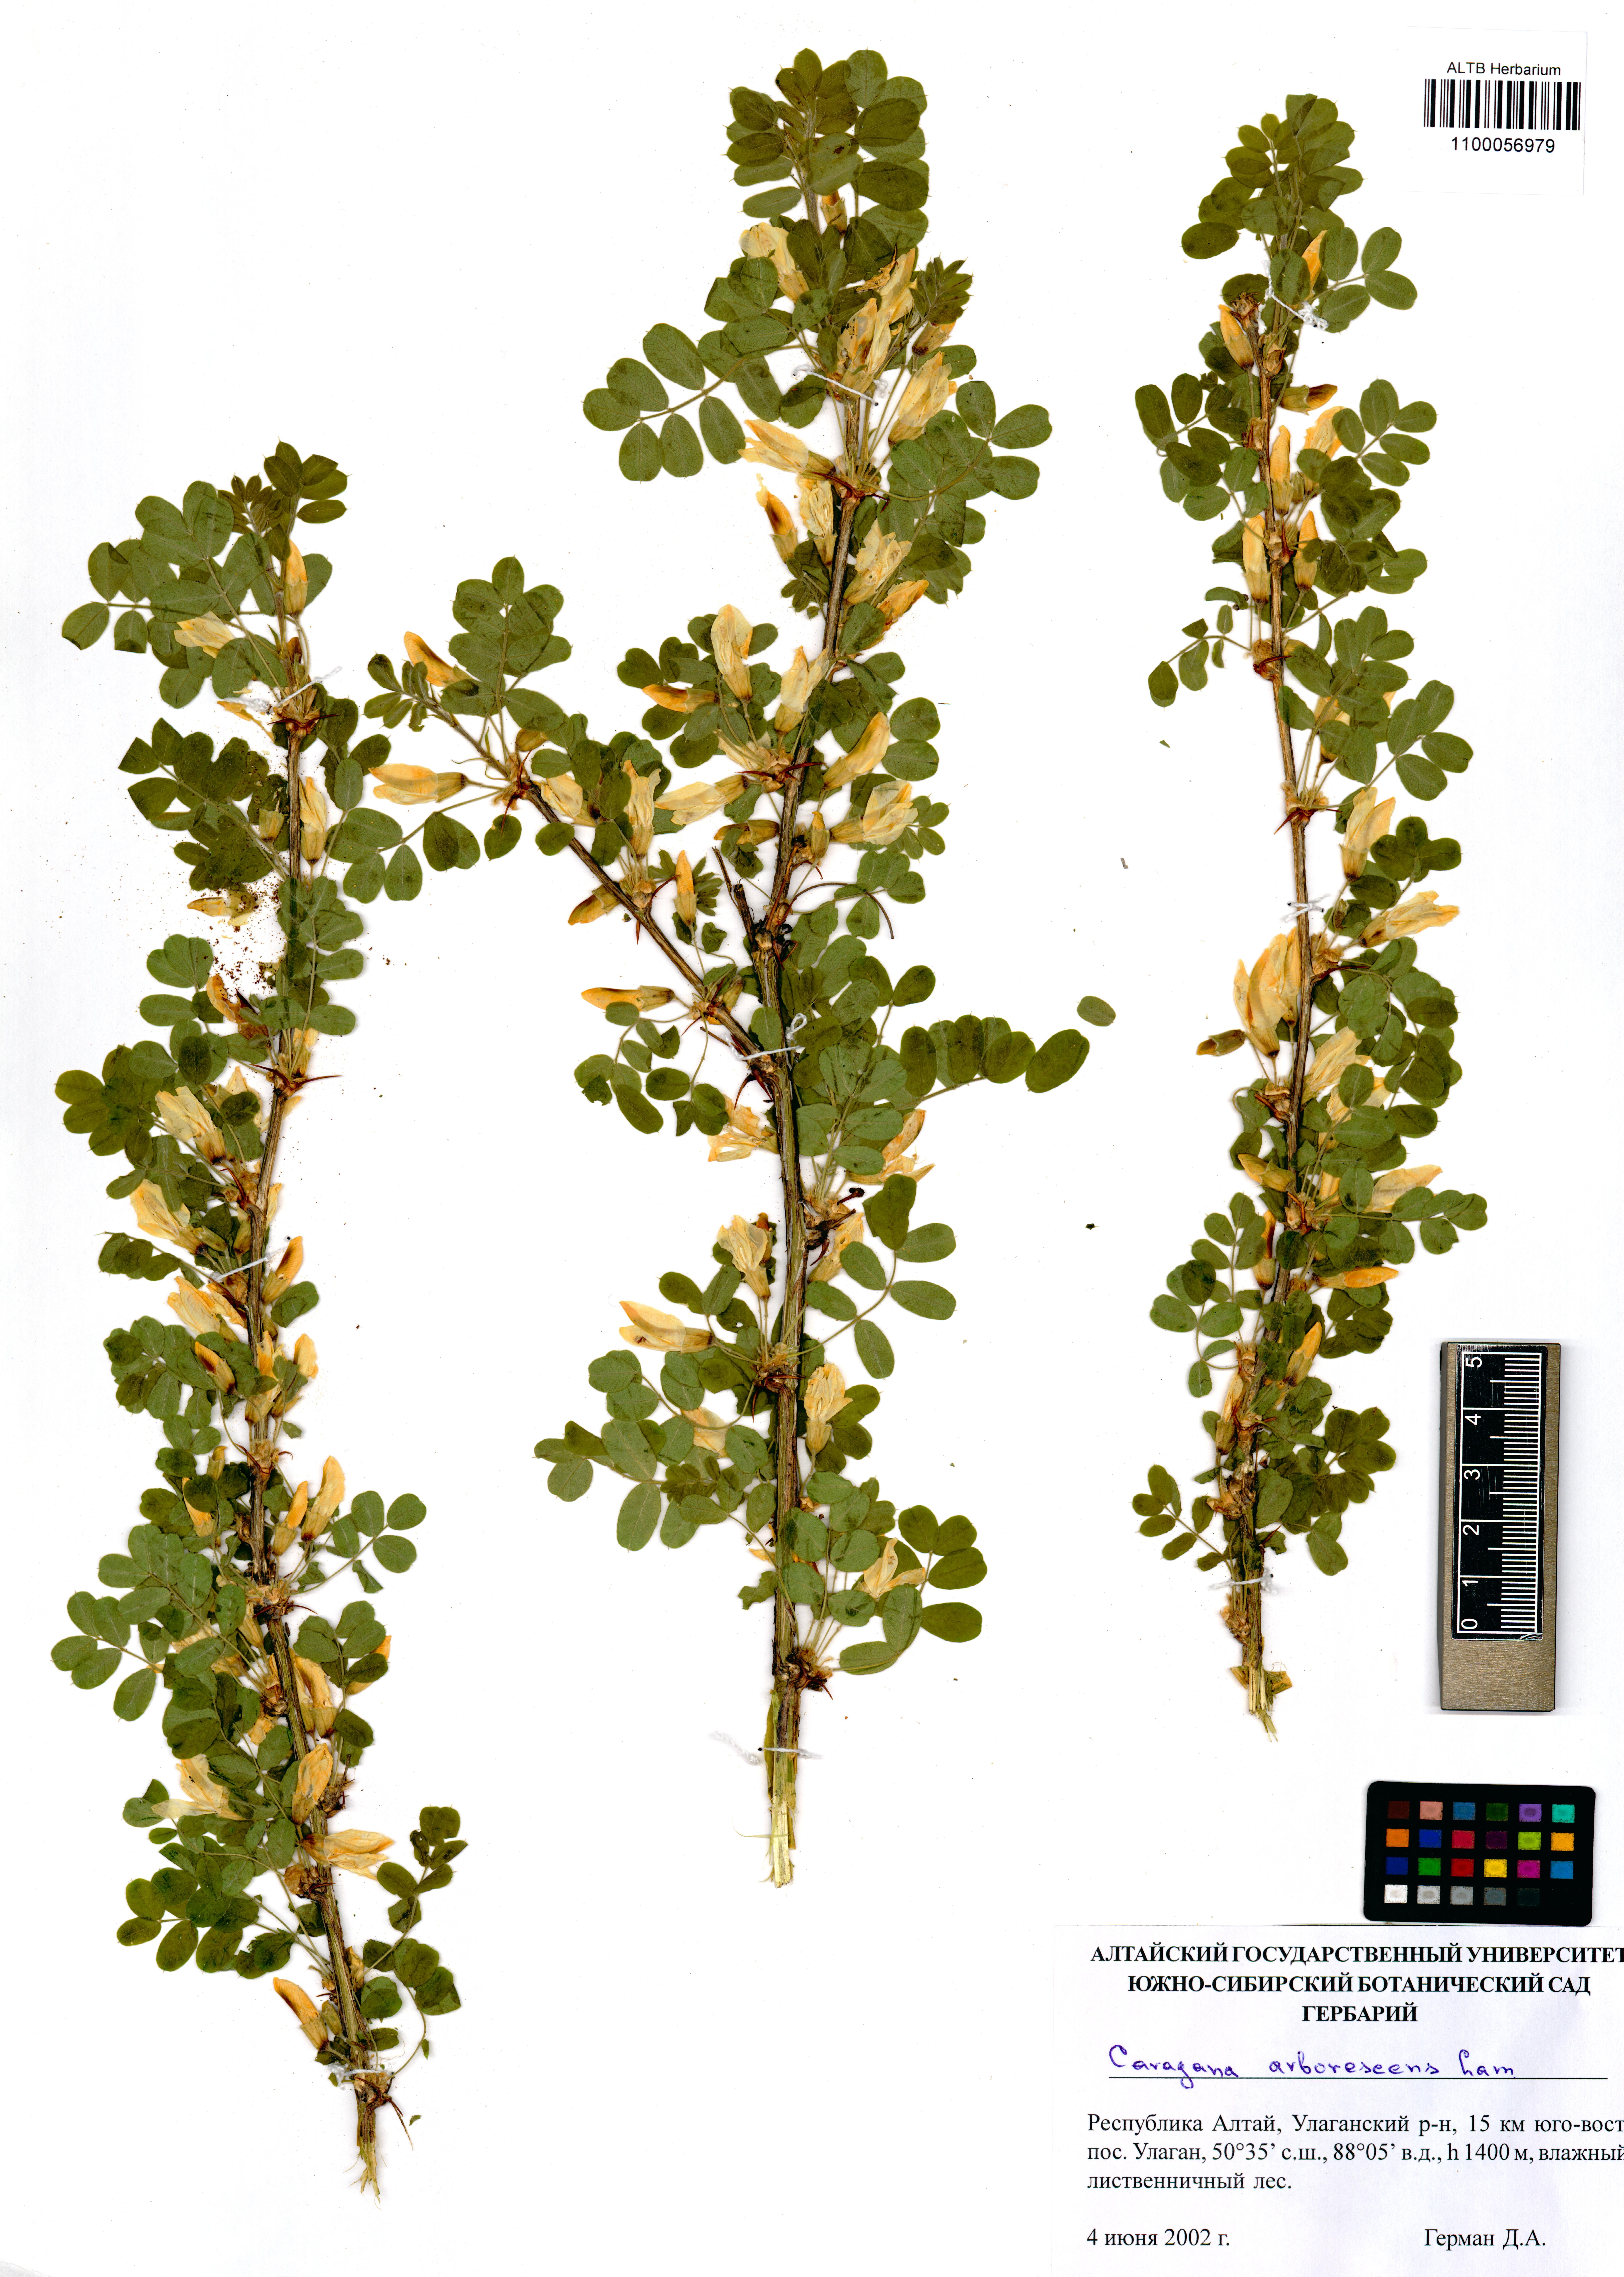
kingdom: Plantae
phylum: Tracheophyta
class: Magnoliopsida
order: Fabales
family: Fabaceae
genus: Caragana
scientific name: Caragana arborescens
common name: Siberian peashrub
